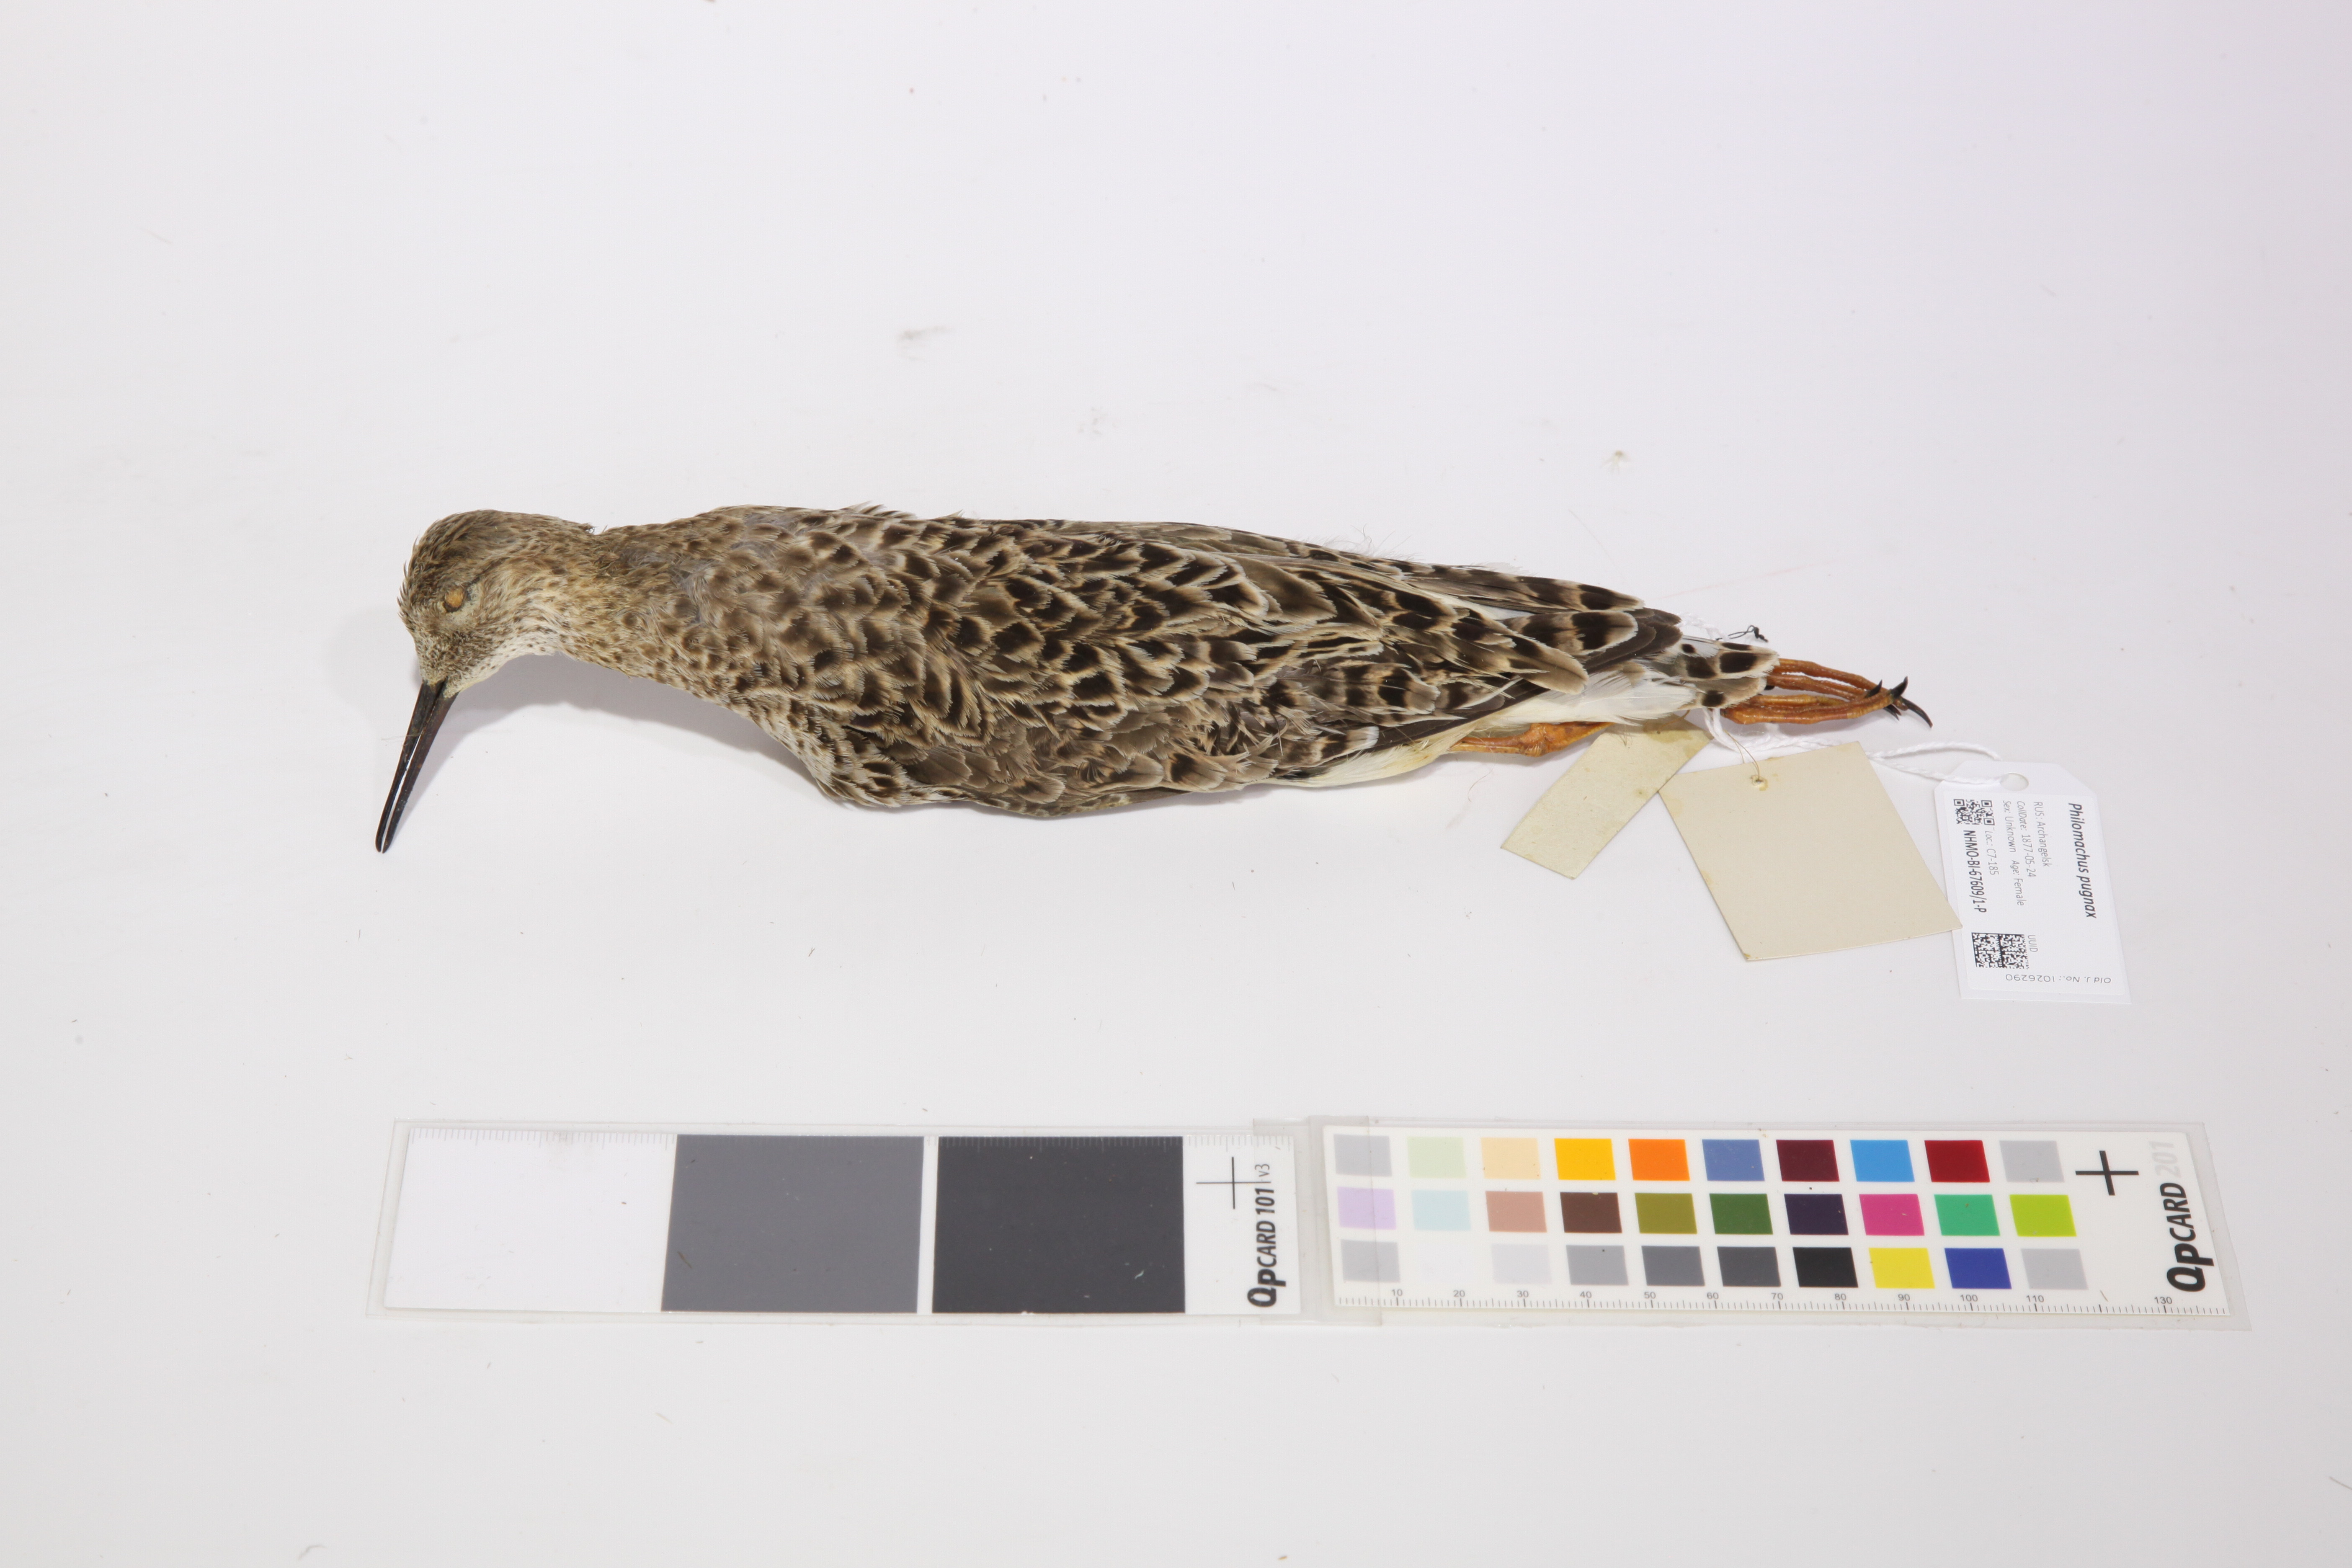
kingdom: Animalia
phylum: Chordata
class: Aves
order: Charadriiformes
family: Scolopacidae
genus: Calidris
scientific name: Calidris pugnax
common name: Ruff
